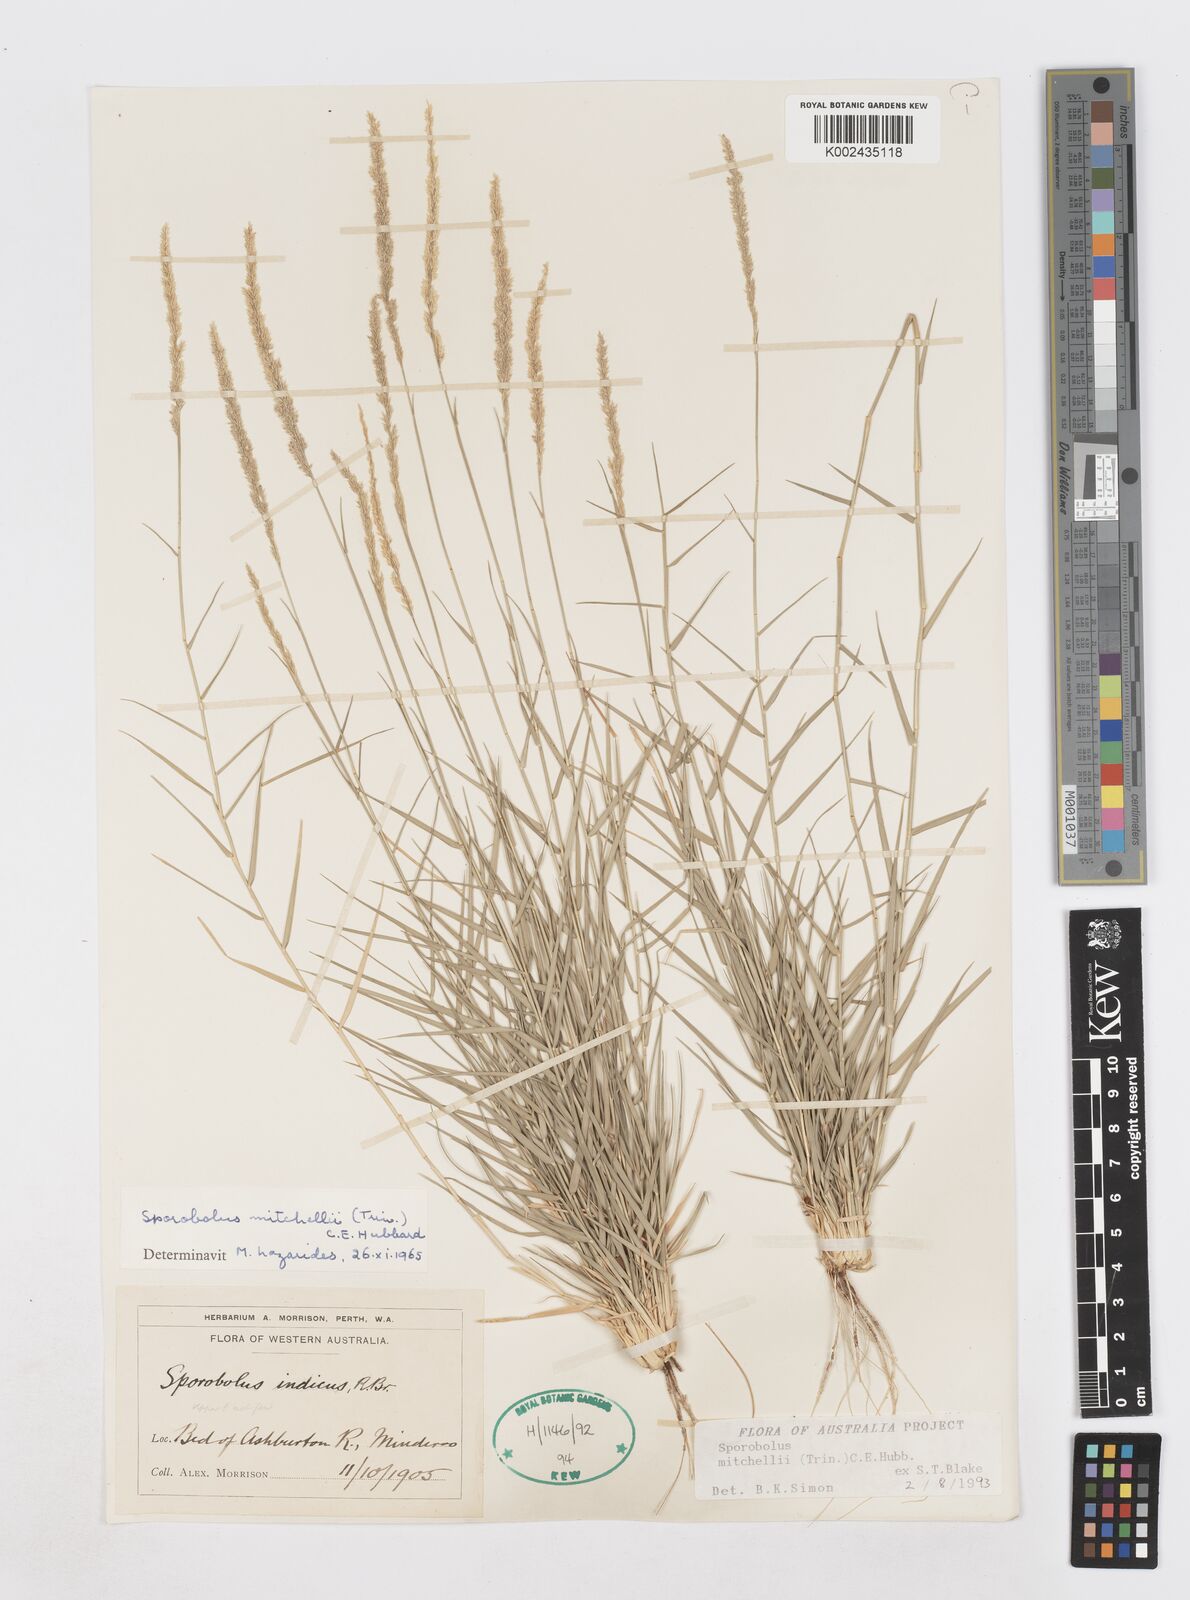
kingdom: Plantae
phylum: Tracheophyta
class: Liliopsida
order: Poales
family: Poaceae
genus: Sporobolus
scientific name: Sporobolus mitchellii
